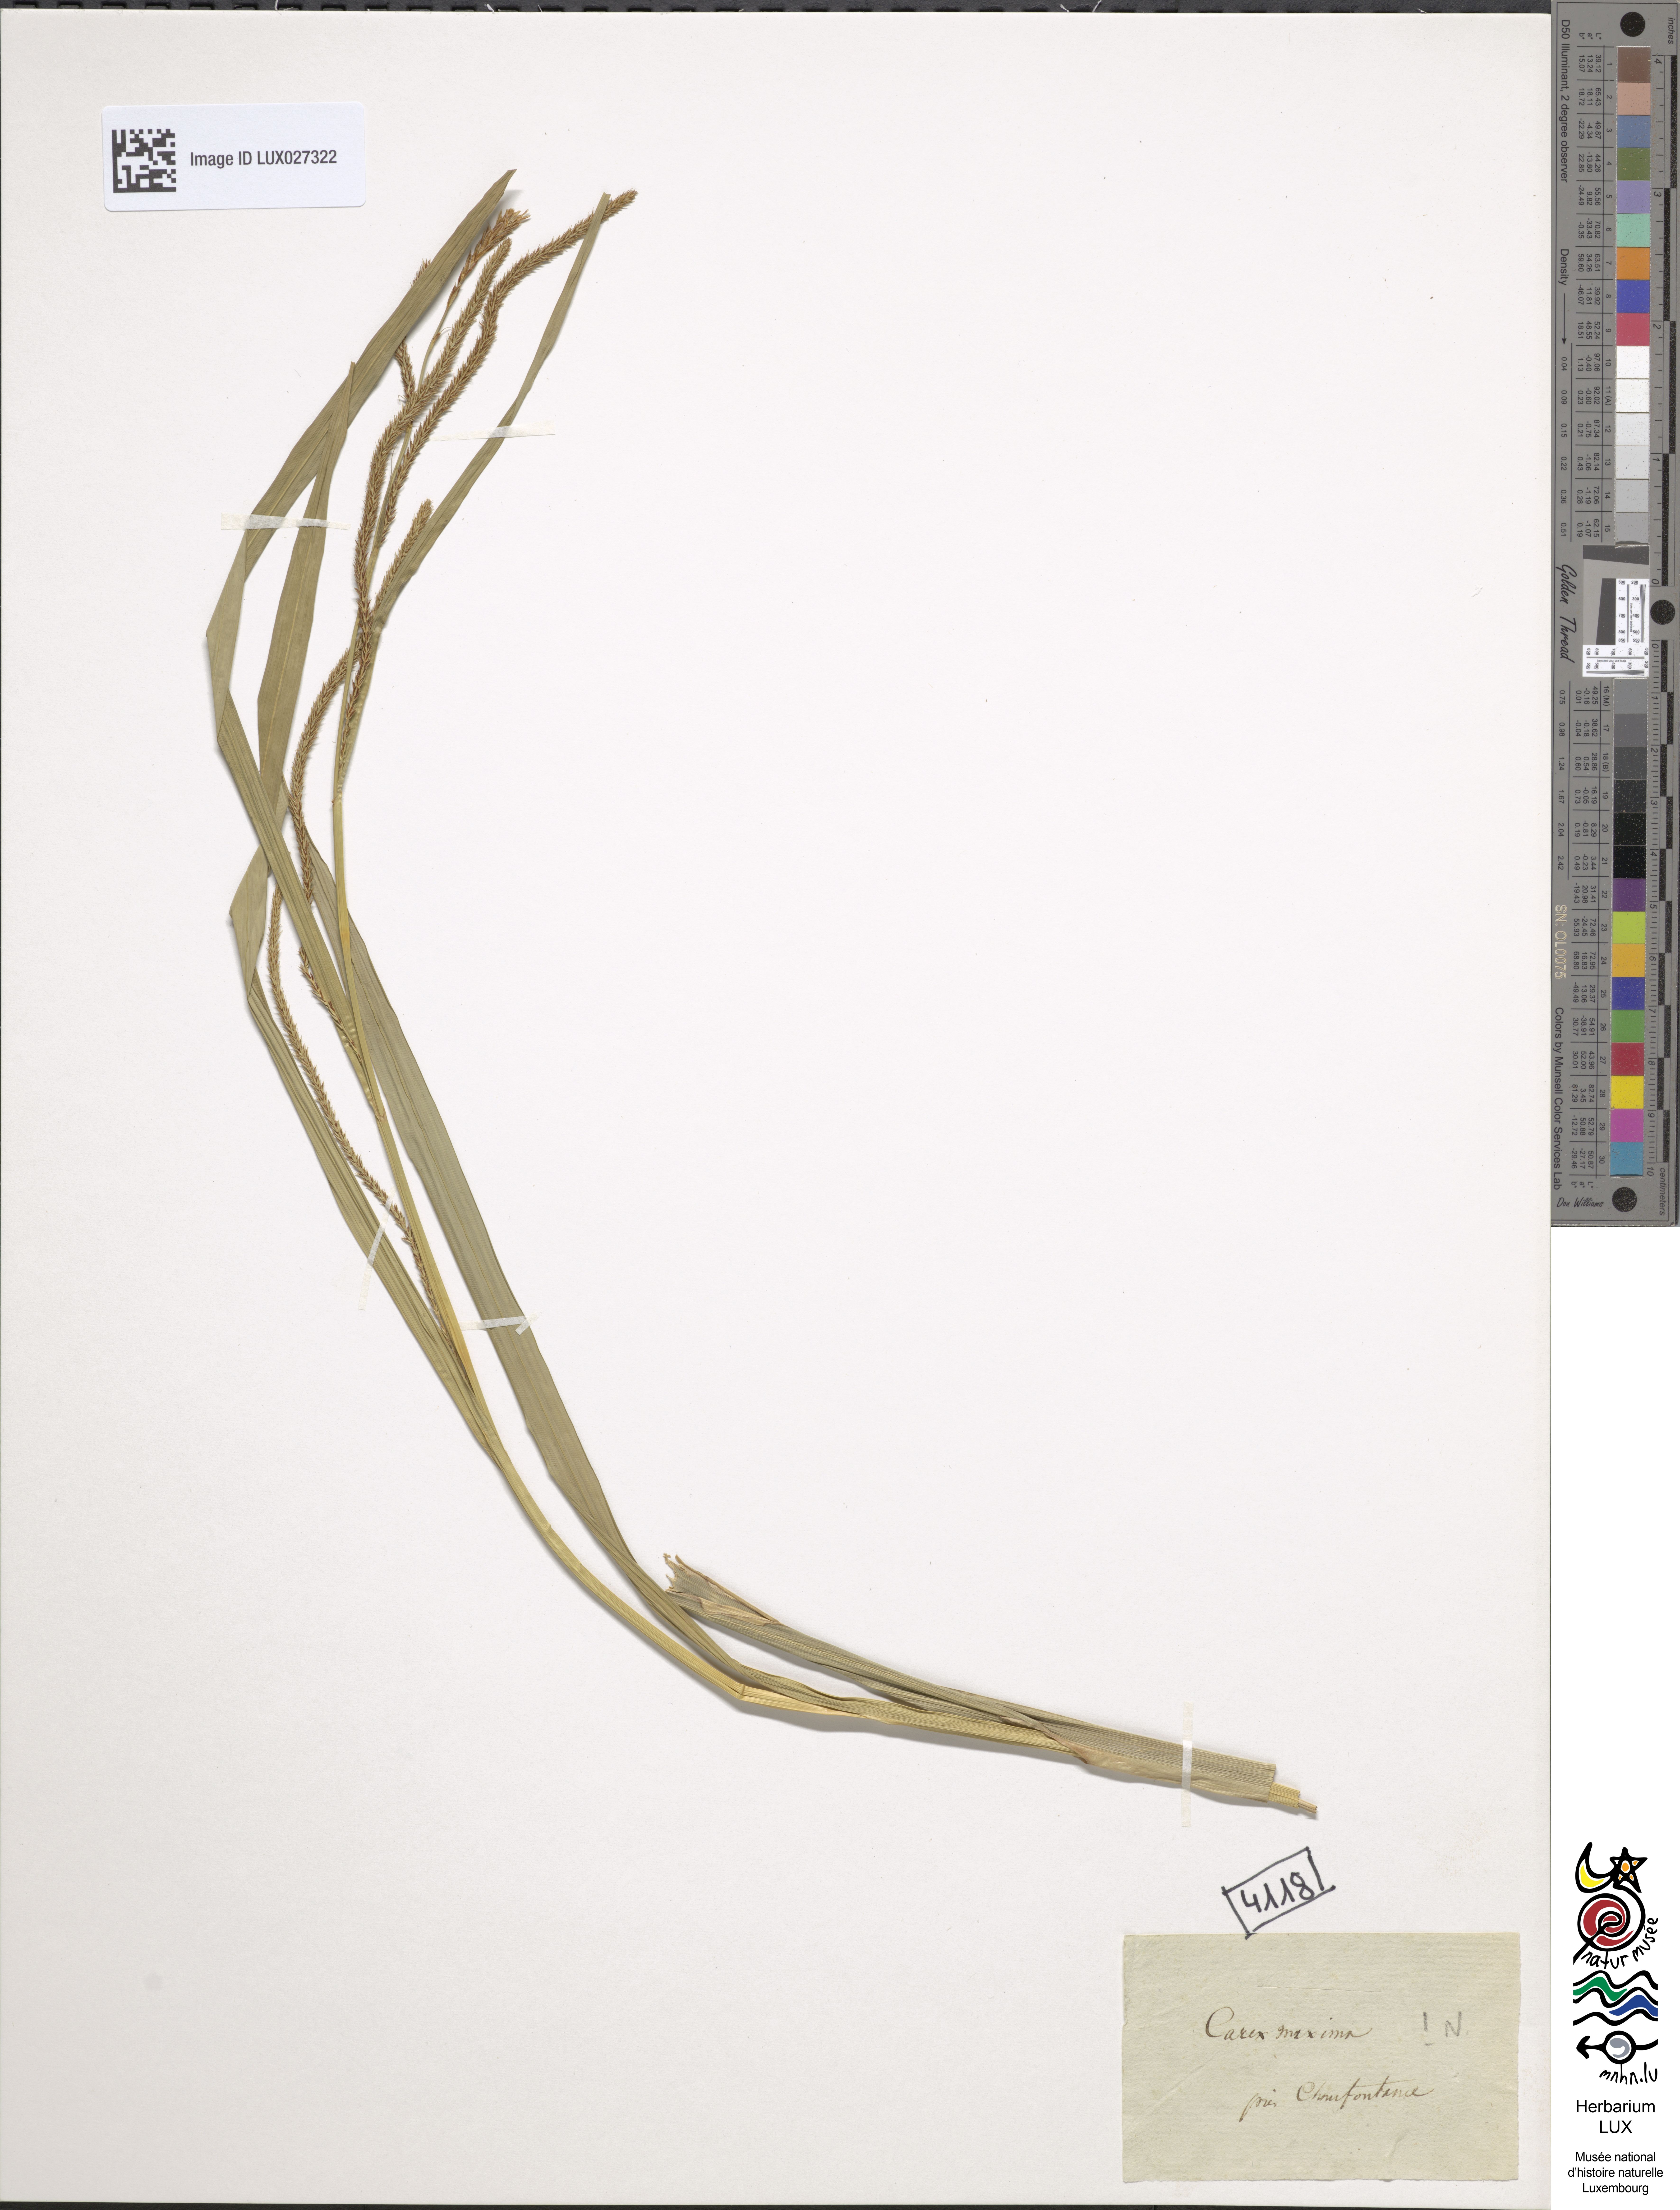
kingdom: Plantae
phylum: Tracheophyta
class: Liliopsida
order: Poales
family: Cyperaceae
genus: Carex
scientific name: Carex pendula
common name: Pendulous sedge
